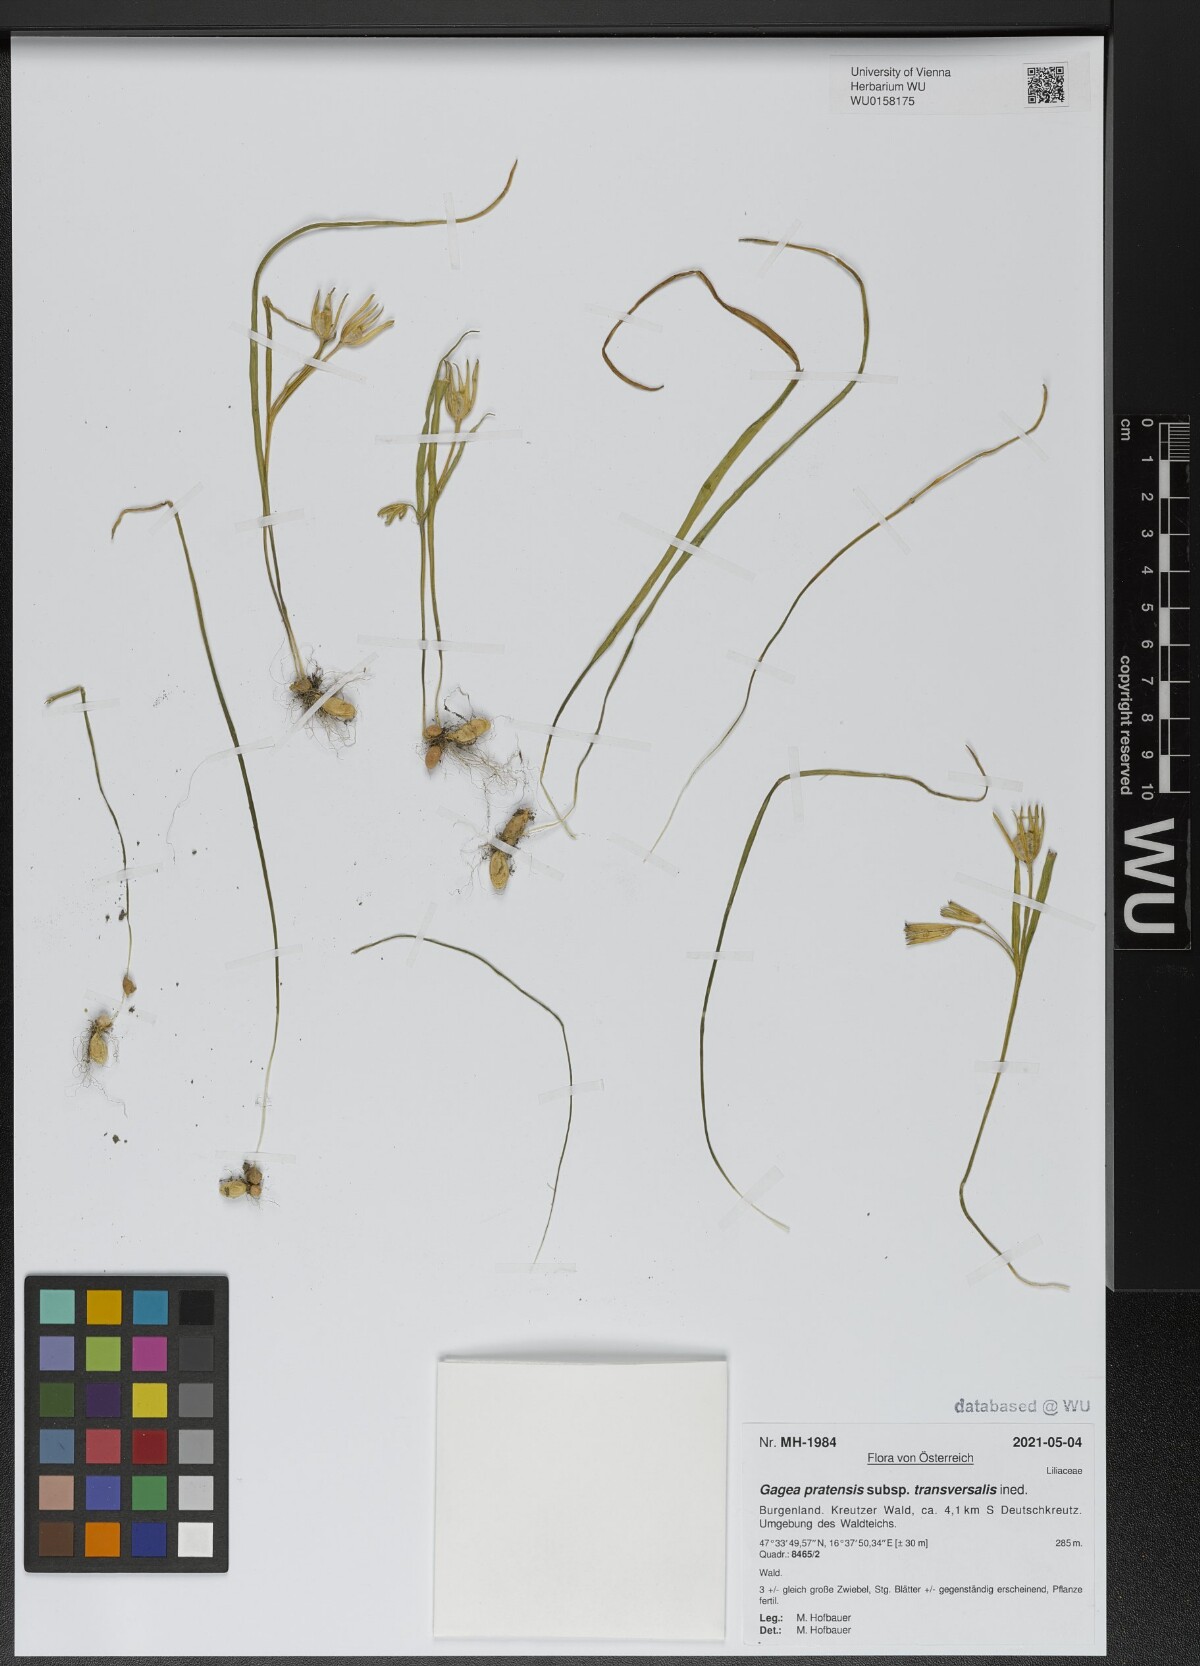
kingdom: Plantae
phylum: Tracheophyta
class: Liliopsida
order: Liliales
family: Liliaceae
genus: Gagea
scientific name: Gagea pratensis
